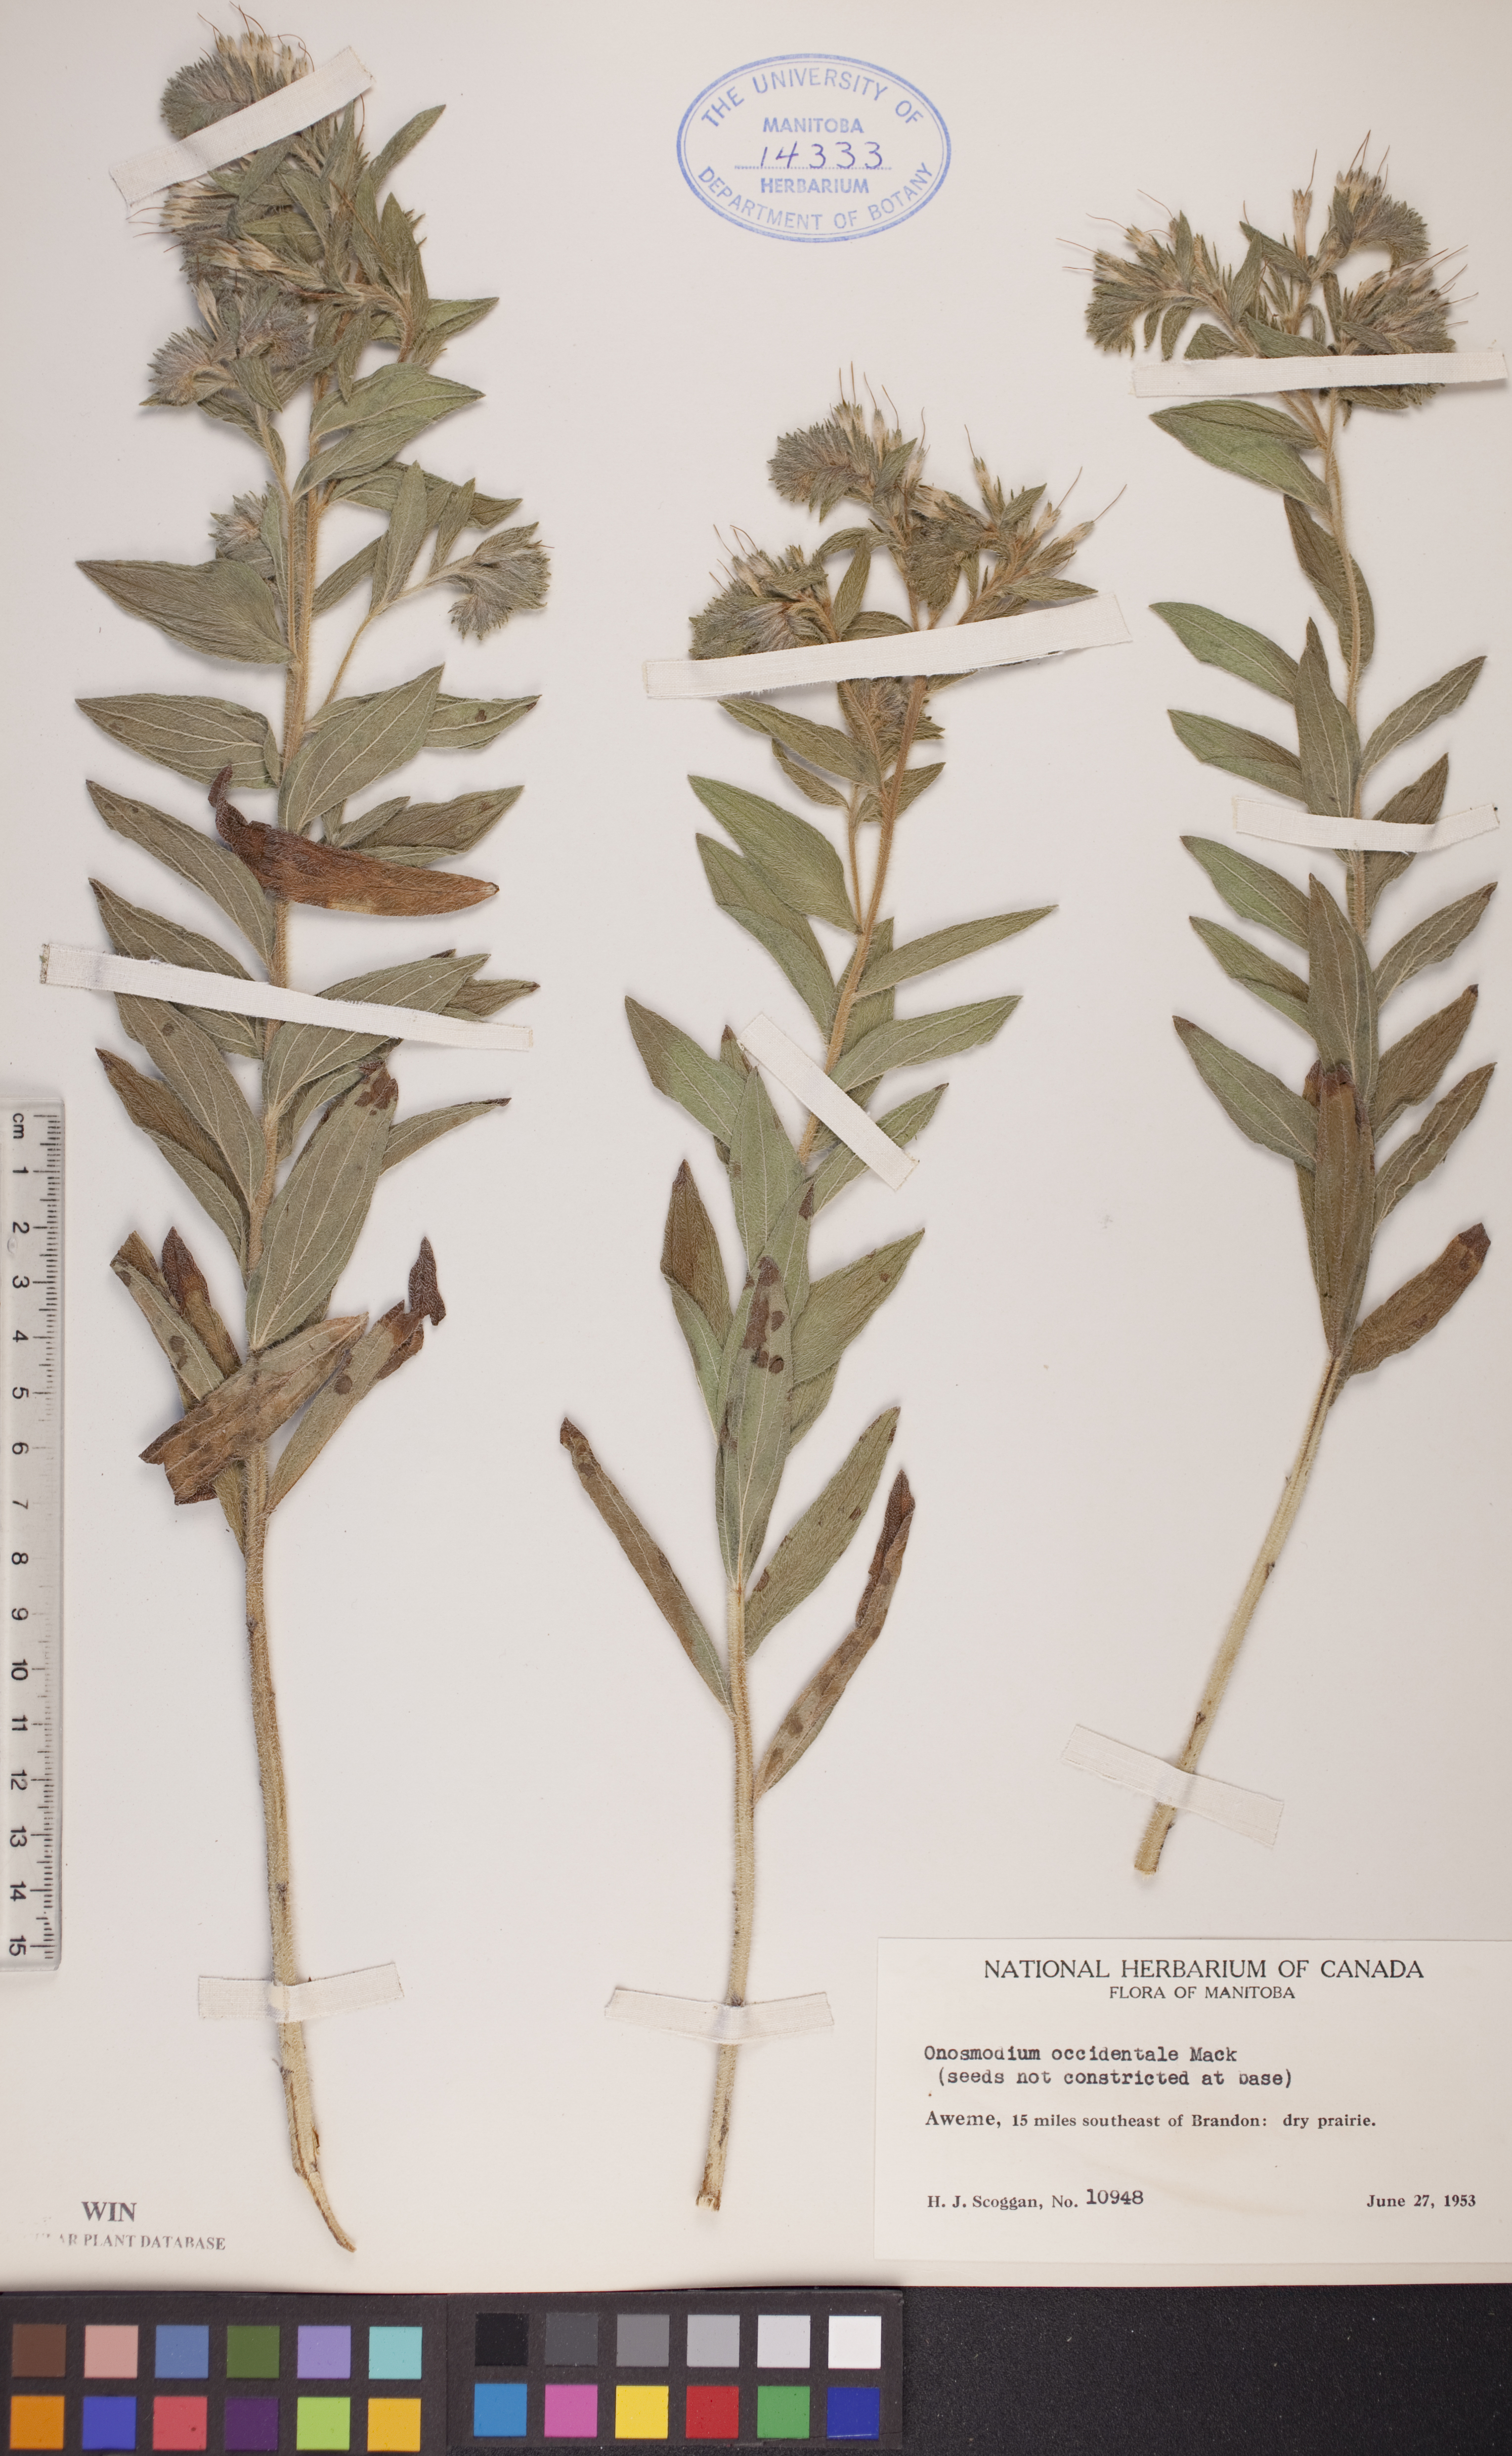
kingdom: Plantae
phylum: Tracheophyta
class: Magnoliopsida
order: Boraginales
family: Boraginaceae
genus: Lithospermum
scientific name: Lithospermum occidentale
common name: Western false gromwell
